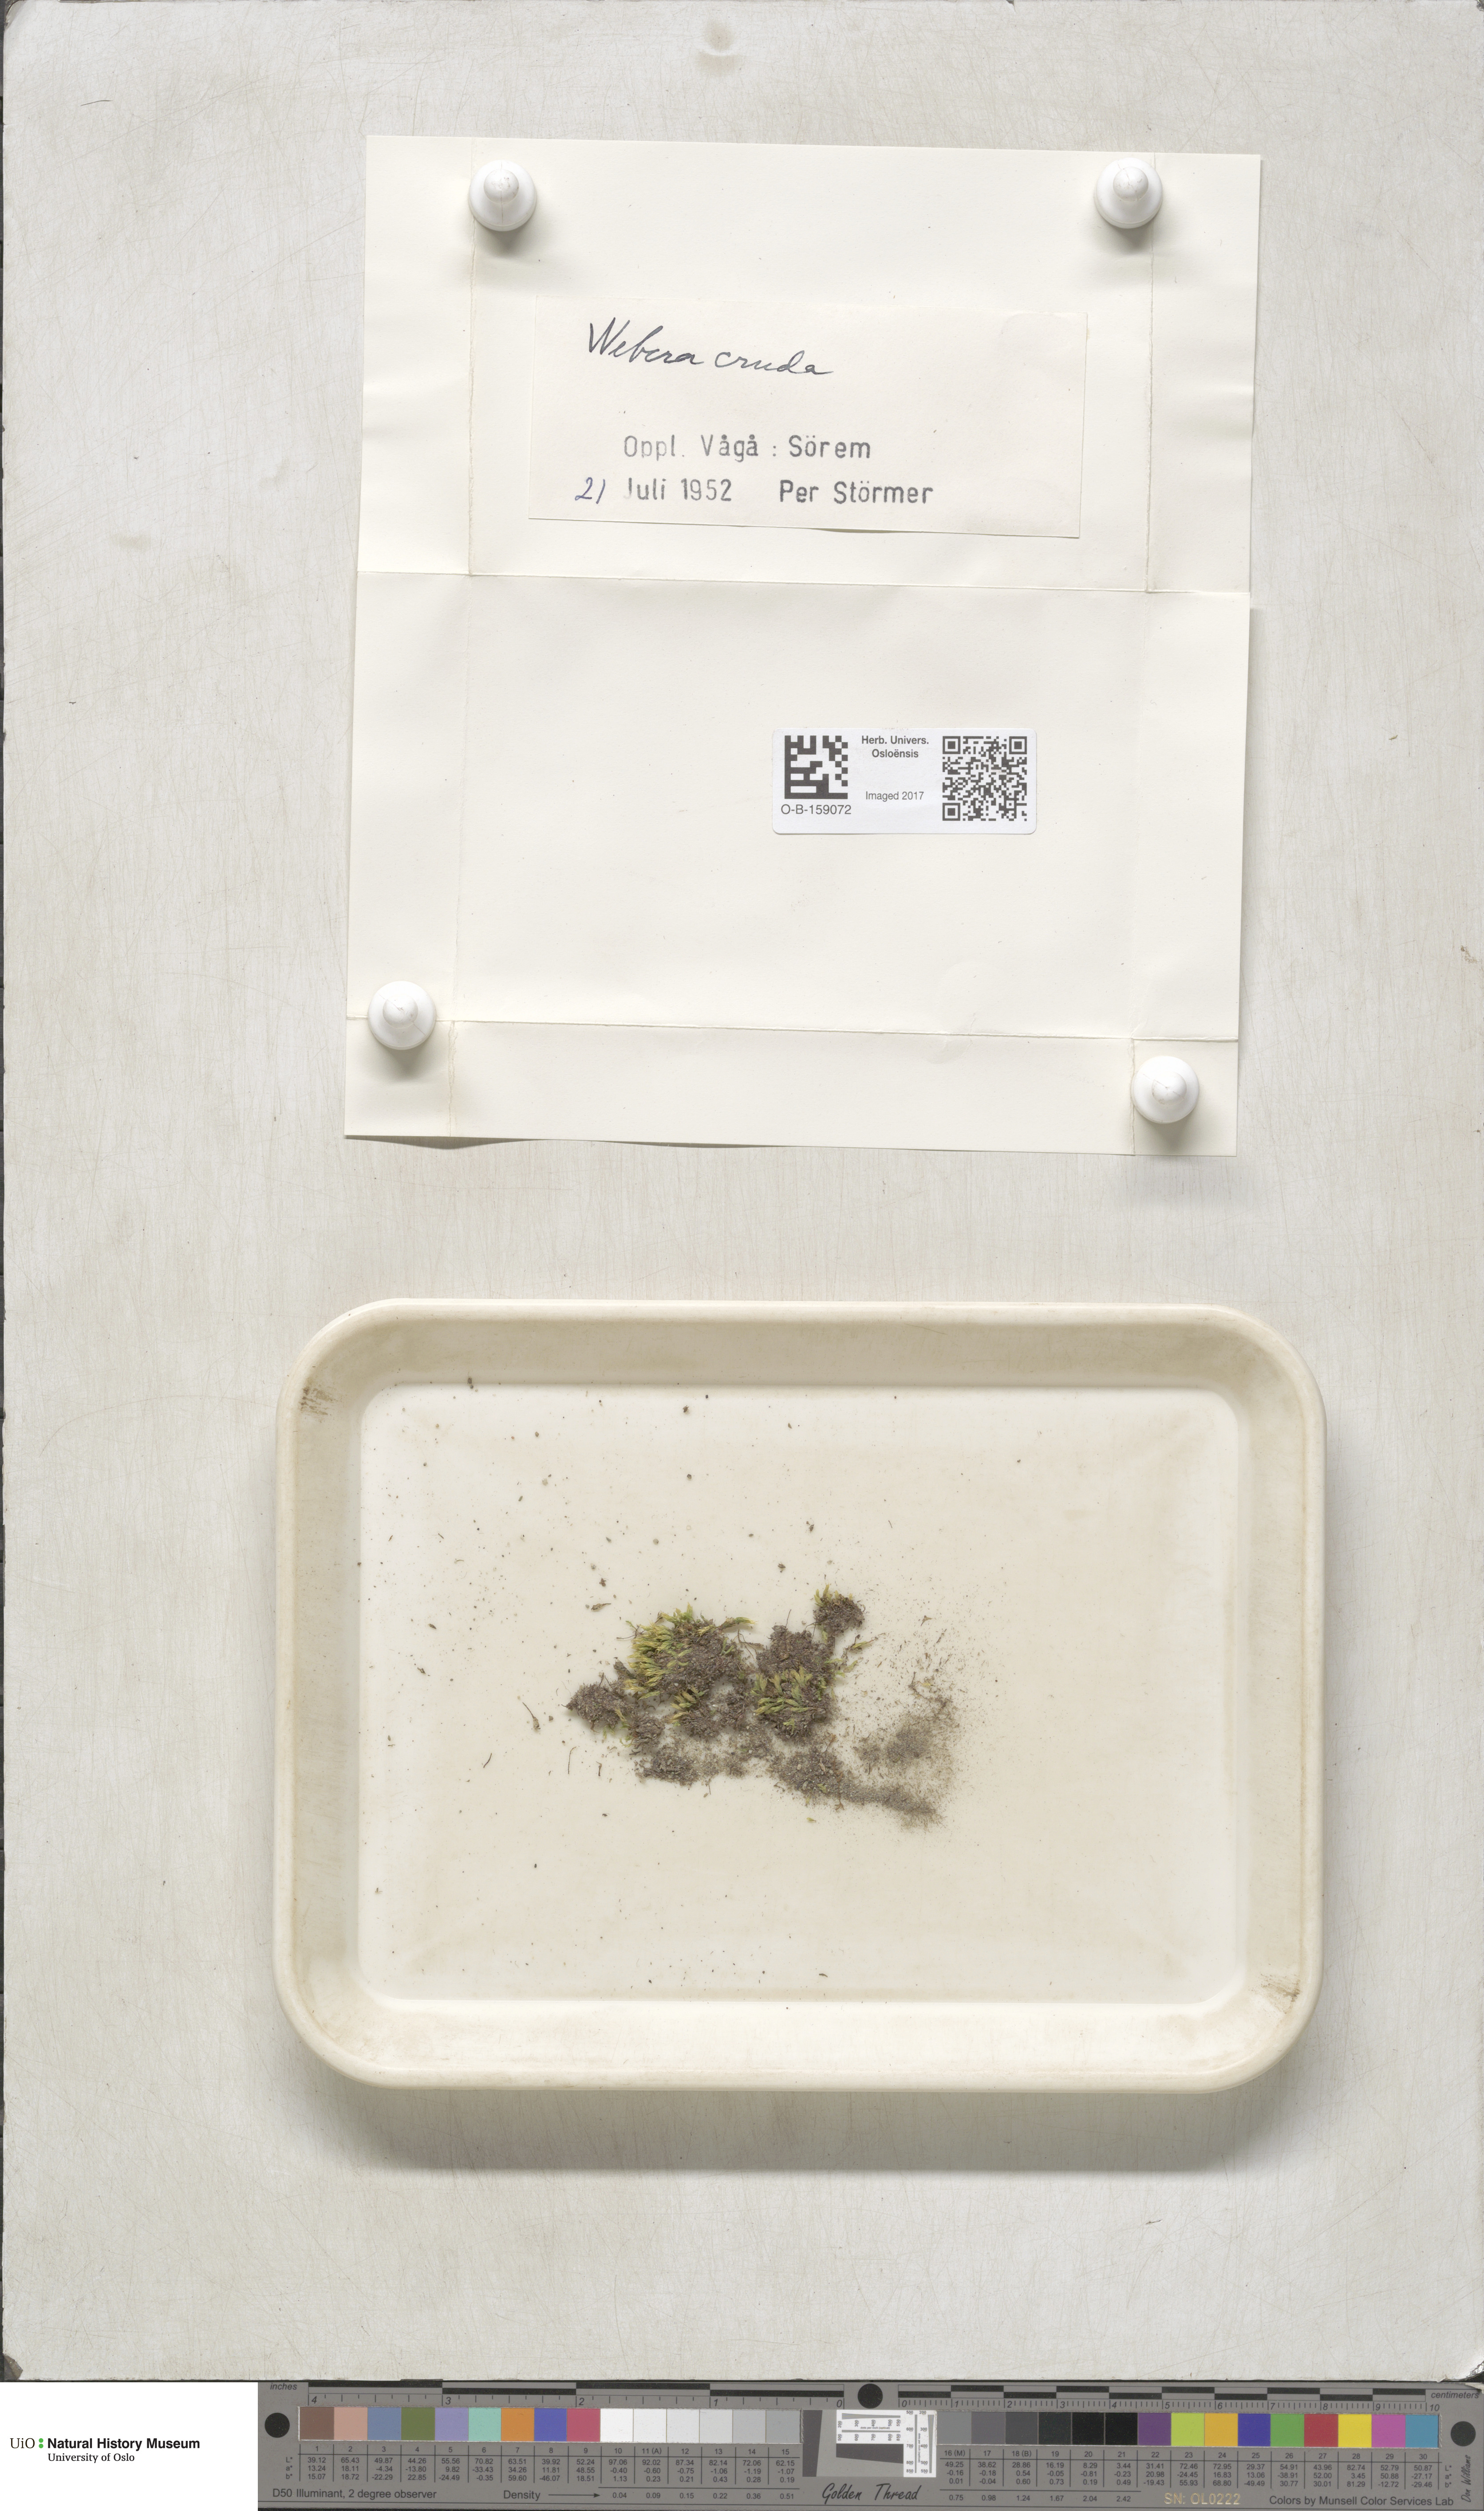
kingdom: Plantae
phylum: Bryophyta
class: Bryopsida
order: Bryales
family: Mniaceae
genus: Pohlia
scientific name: Pohlia cruda
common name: Opal nodding moss
